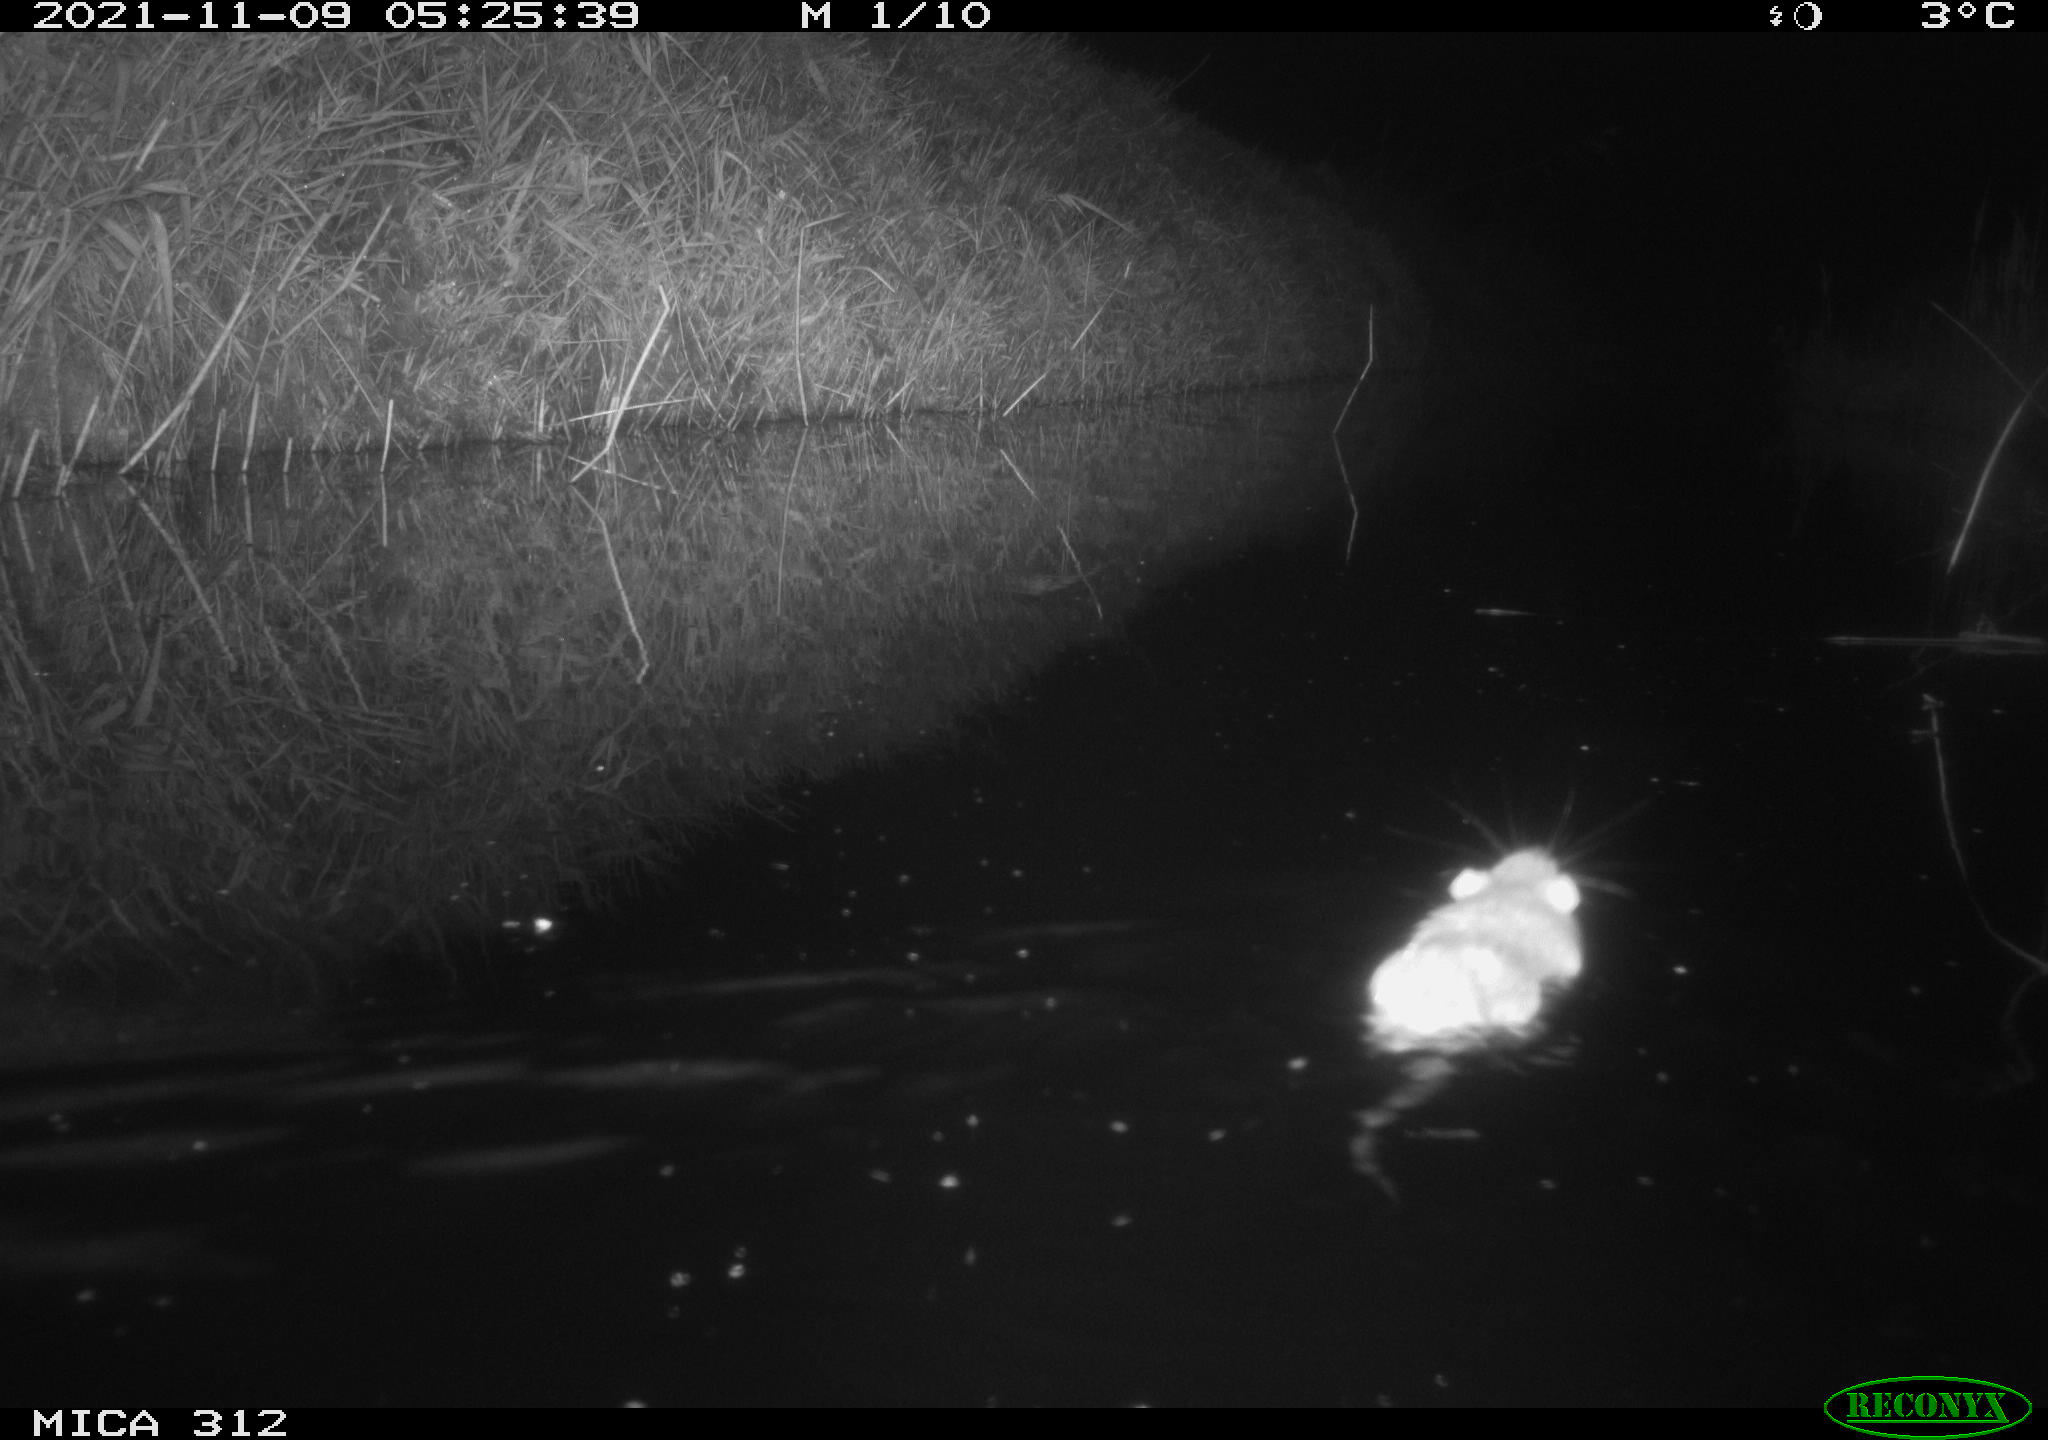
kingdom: Animalia
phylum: Chordata
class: Mammalia
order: Rodentia
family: Muridae
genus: Rattus
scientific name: Rattus norvegicus
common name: Brown rat
